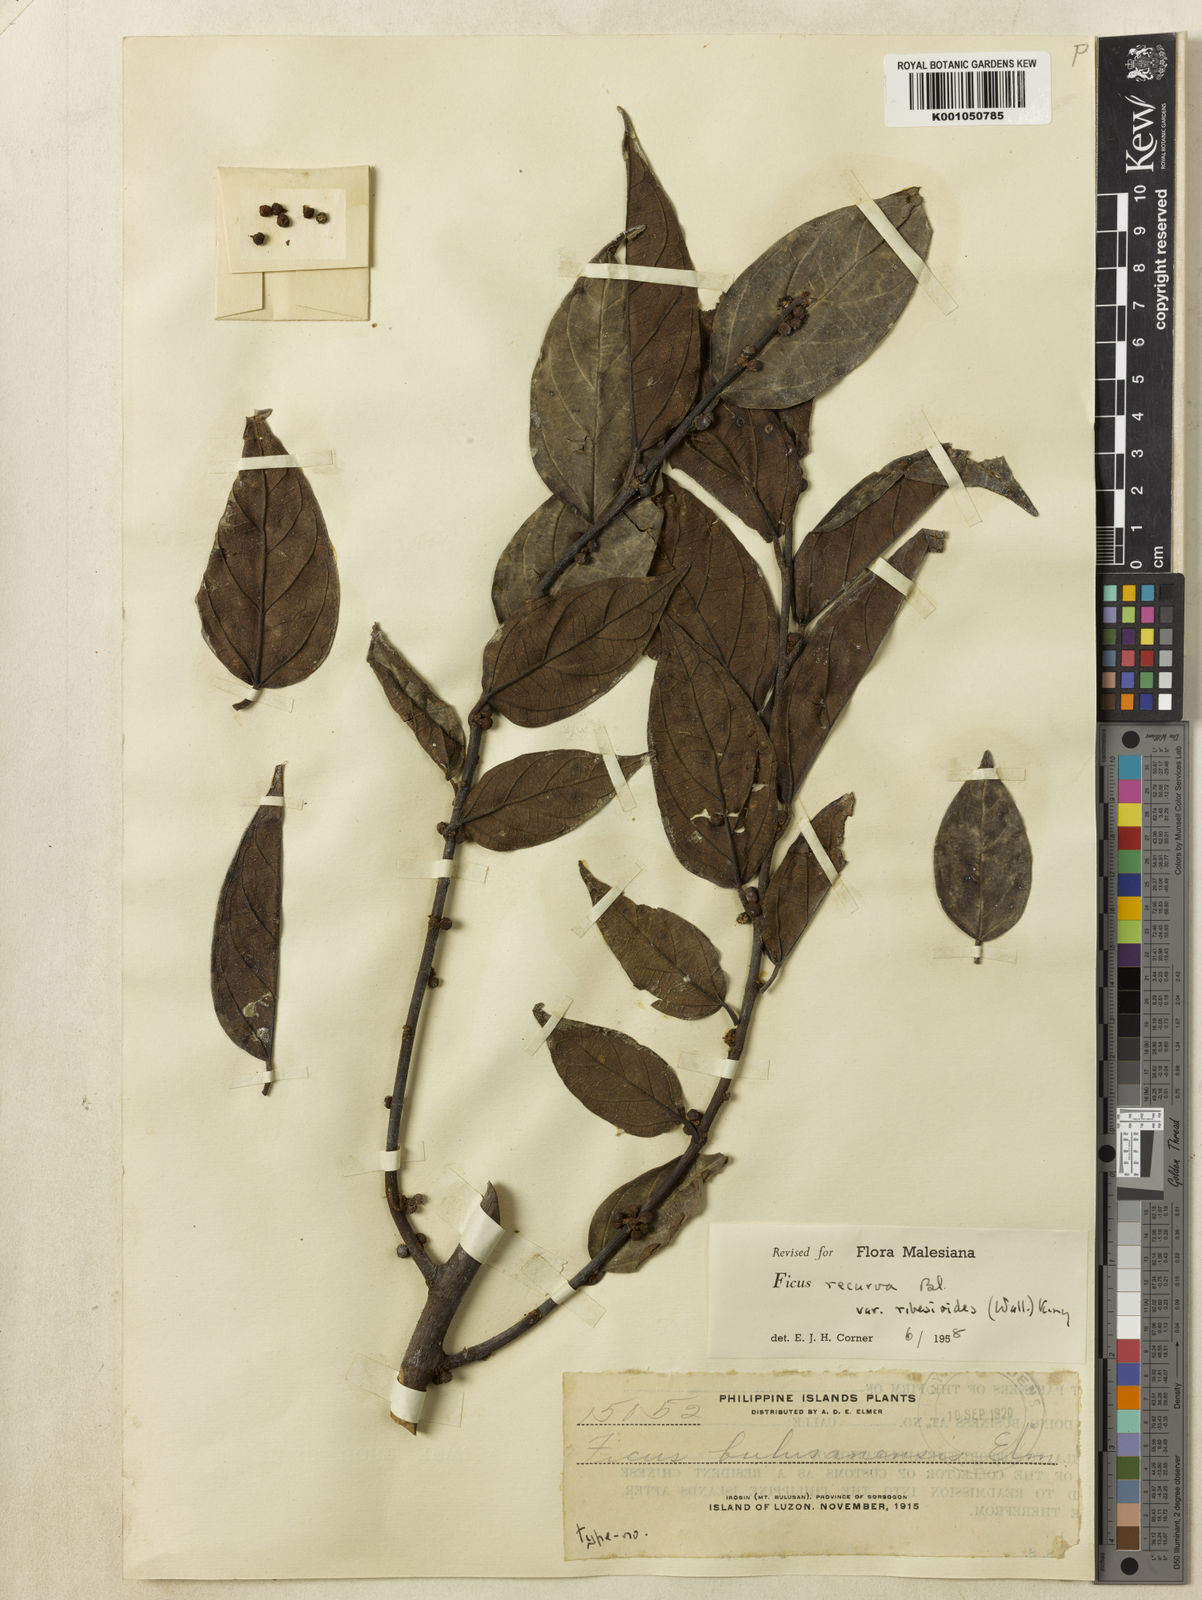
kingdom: Plantae
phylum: Tracheophyta
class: Magnoliopsida
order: Rosales
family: Moraceae
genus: Ficus
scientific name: Ficus recurva
